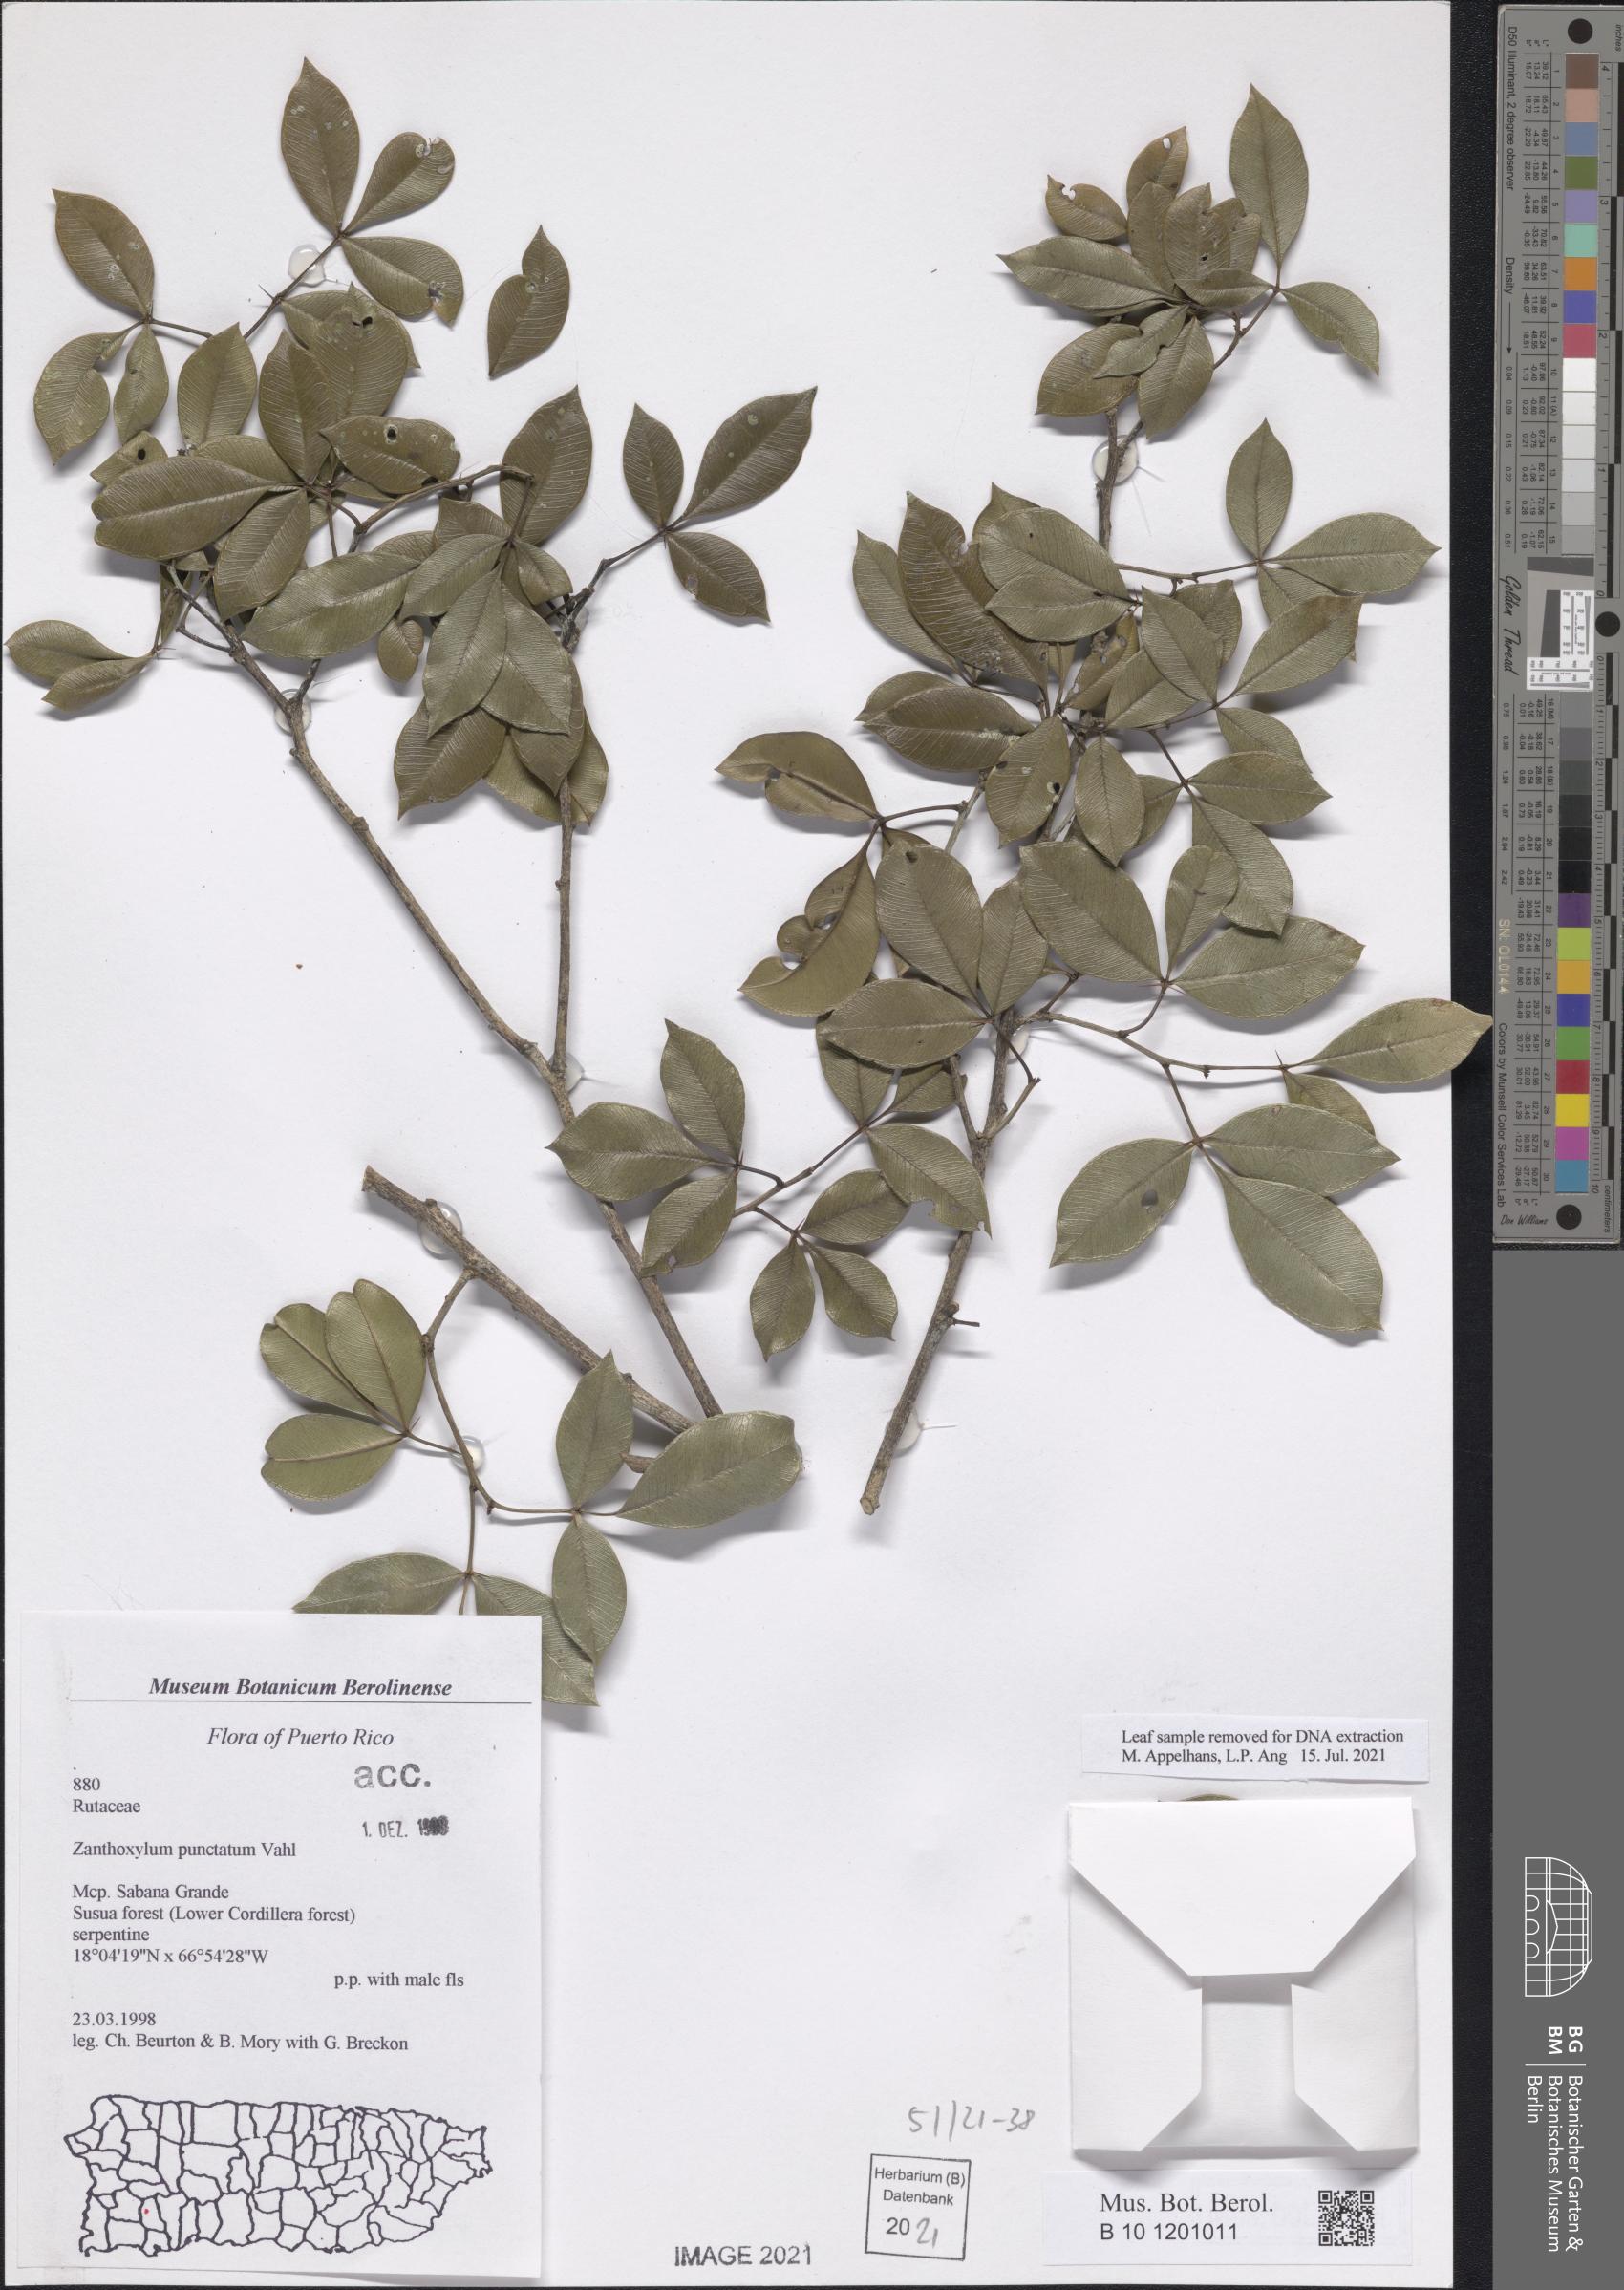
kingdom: Plantae
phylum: Tracheophyta
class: Magnoliopsida
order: Sapindales
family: Rutaceae
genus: Zanthoxylum
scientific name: Zanthoxylum punctatum
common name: Dotted pricklyash
